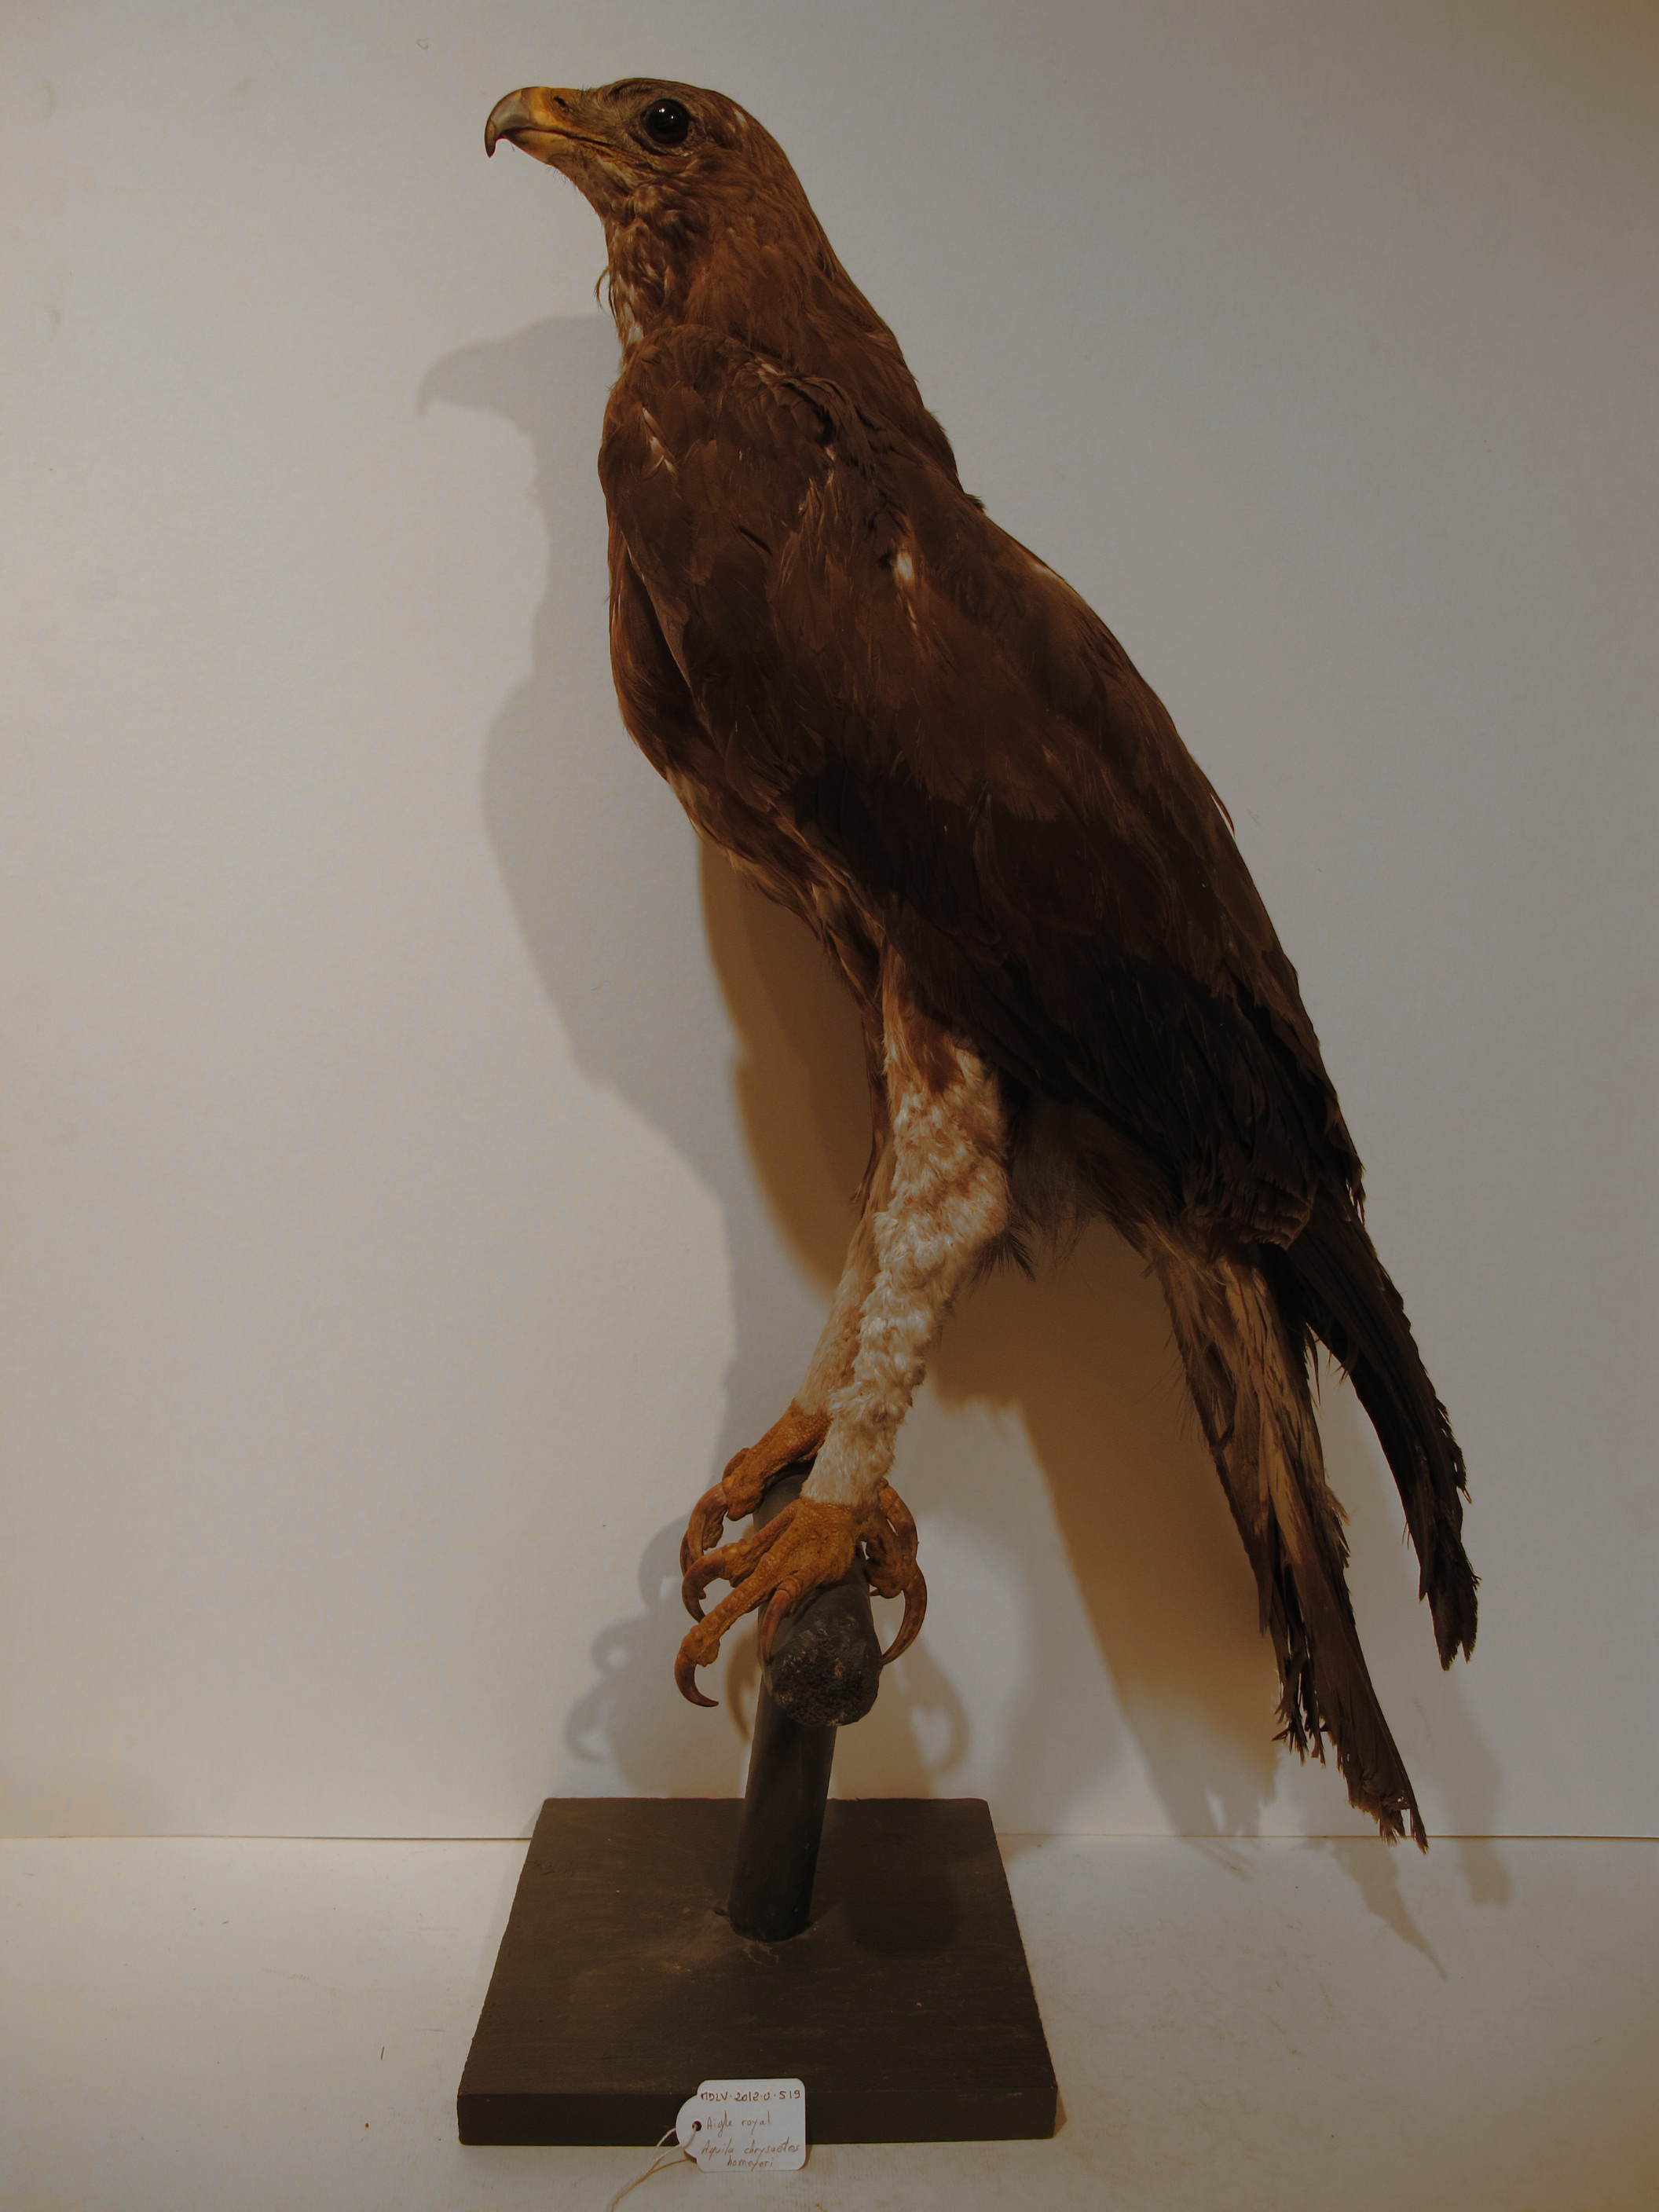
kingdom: Animalia
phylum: Chordata
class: Aves
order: Accipitriformes
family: Accipitridae
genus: Aquila
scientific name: Aquila chrysaetos
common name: Golden Eagle
